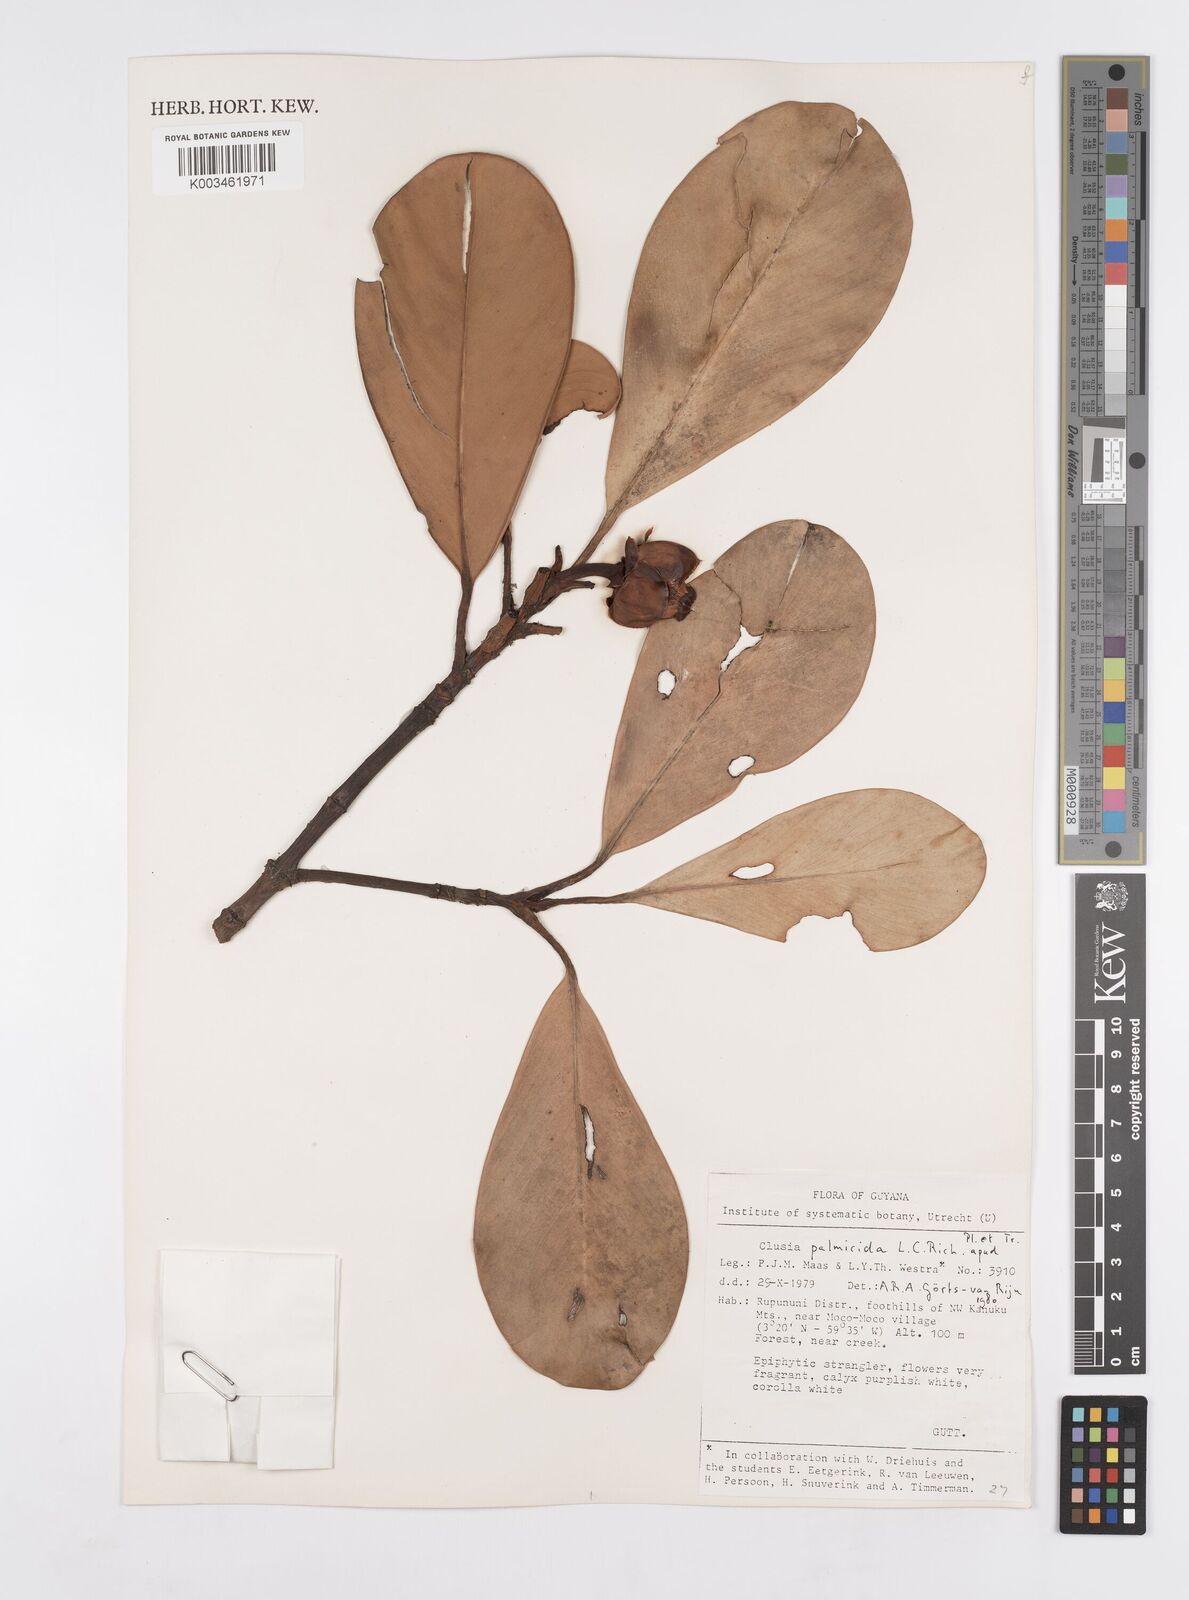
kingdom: Plantae
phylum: Tracheophyta
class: Magnoliopsida
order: Malpighiales
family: Clusiaceae
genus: Clusia
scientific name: Clusia palmicida
